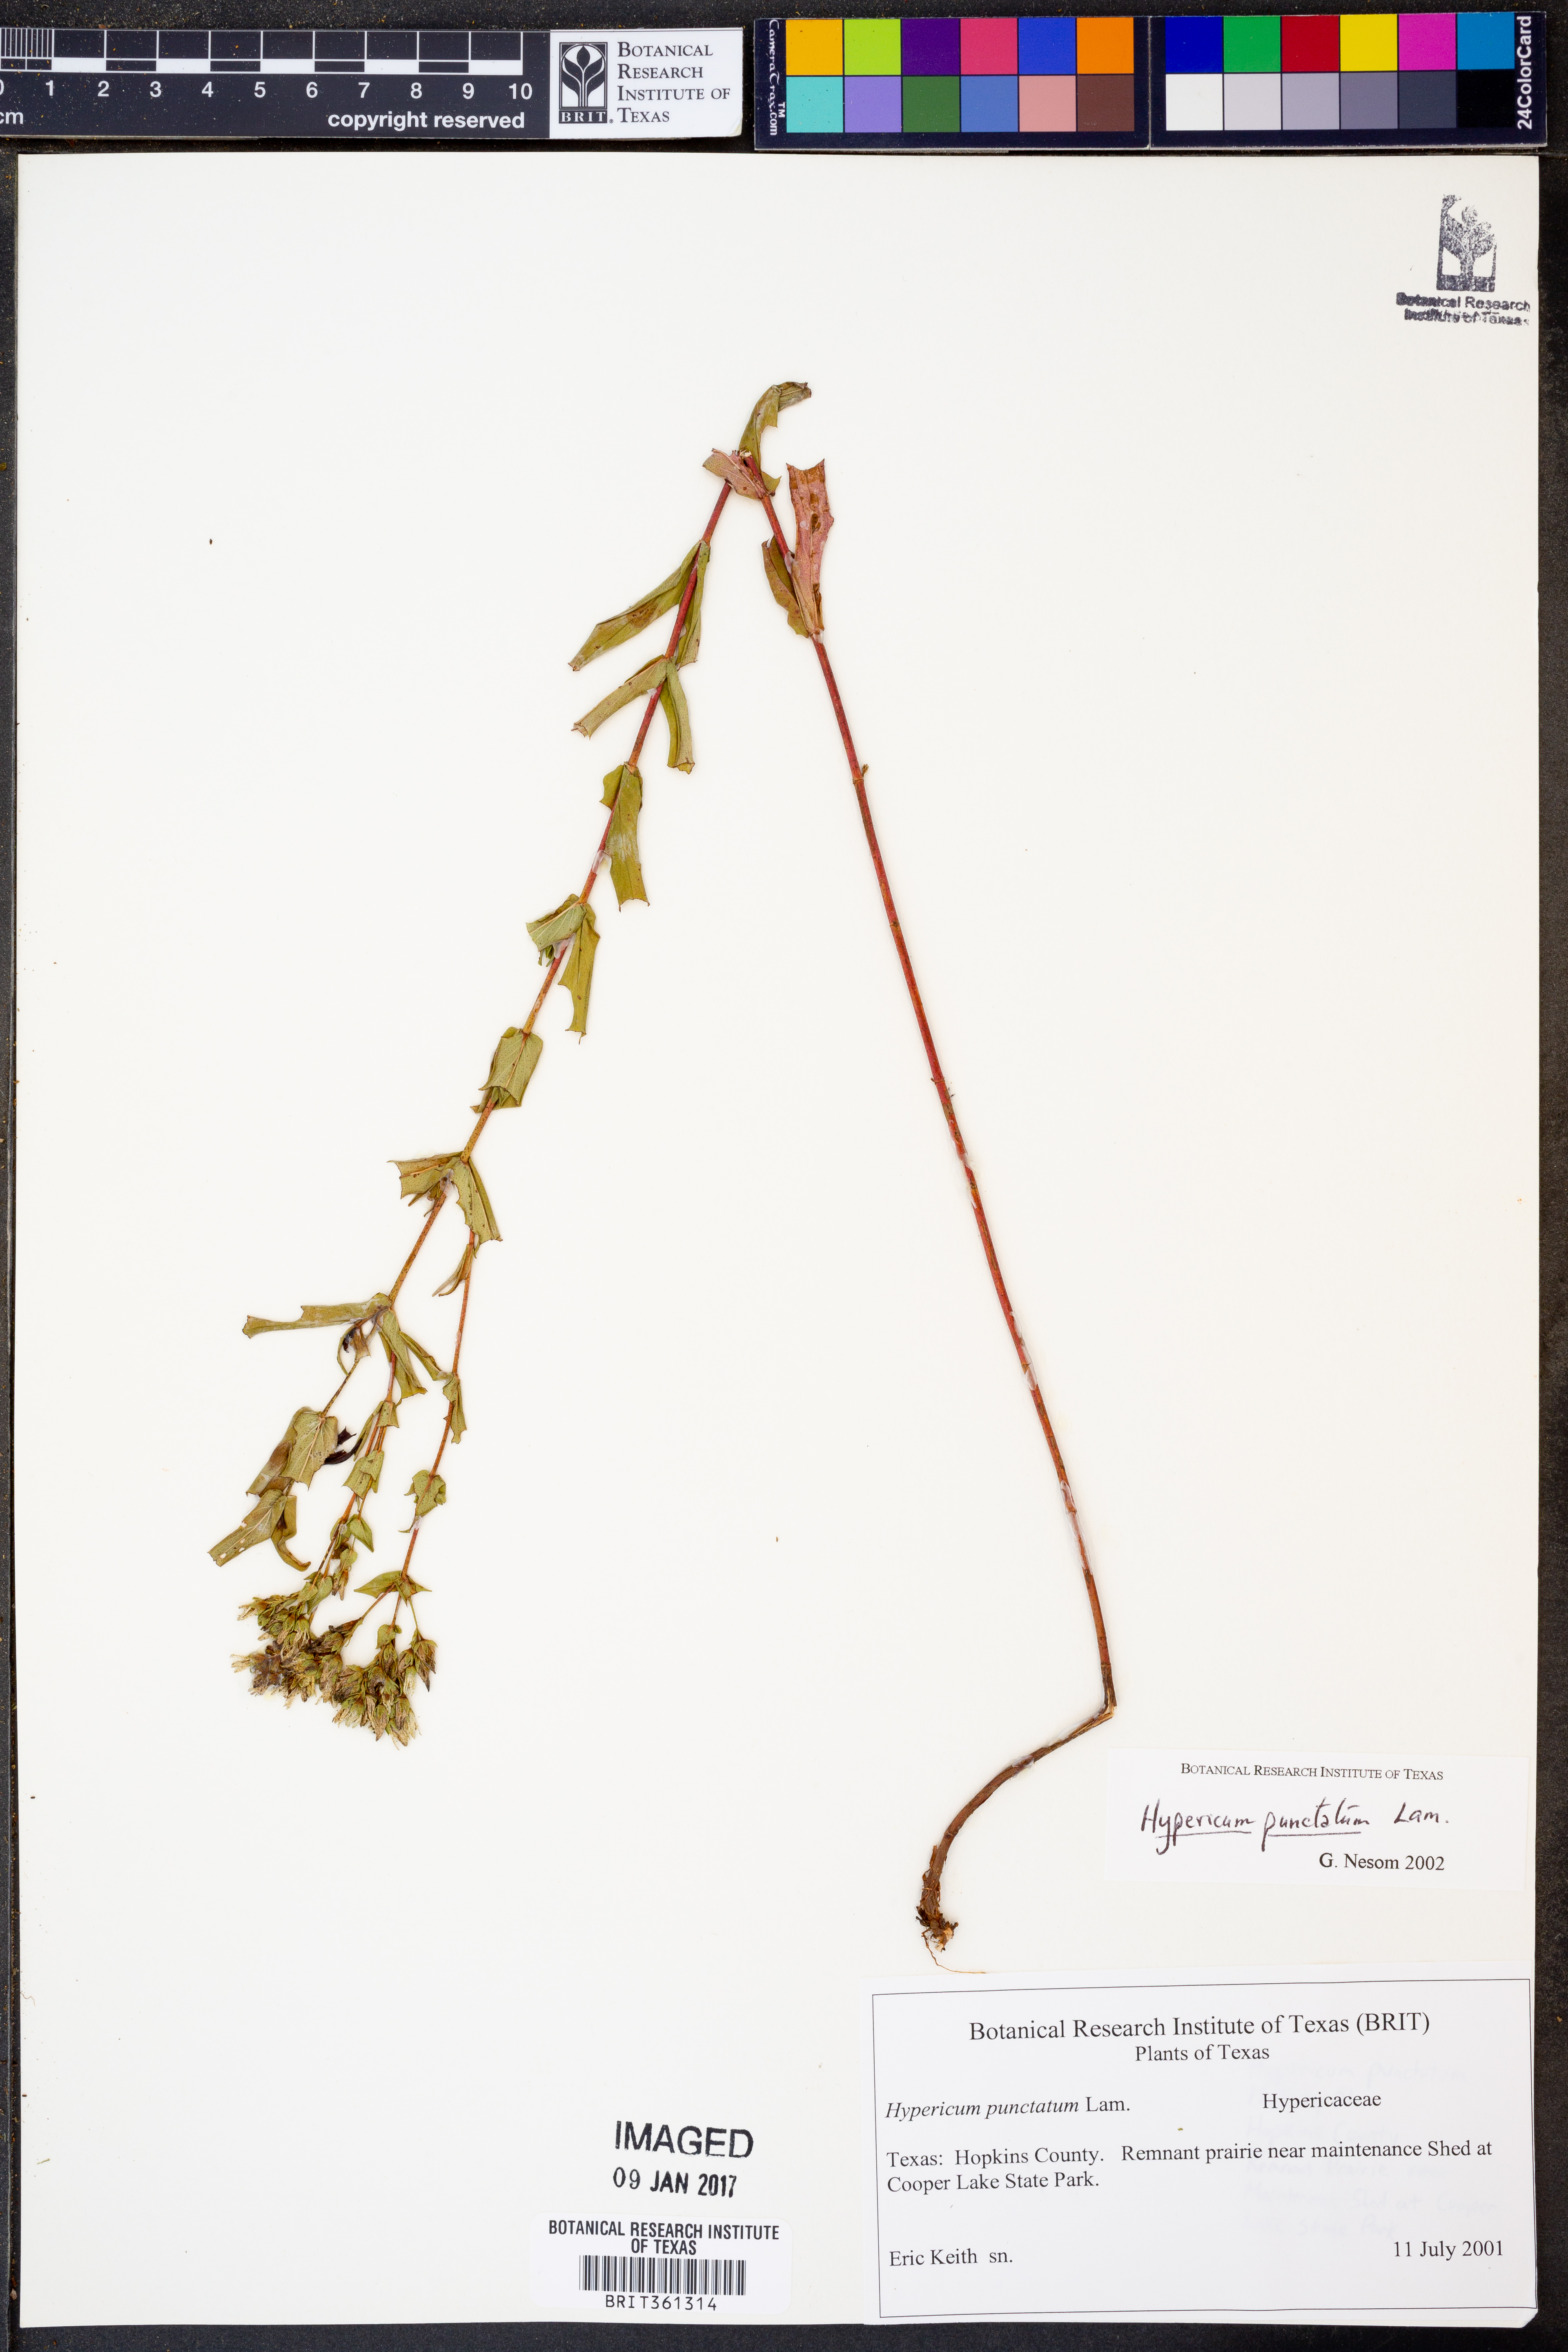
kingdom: Plantae
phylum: Tracheophyta
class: Magnoliopsida
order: Malpighiales
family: Hypericaceae
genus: Hypericum
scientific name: Hypericum punctatum
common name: Spotted st. john's-wort
